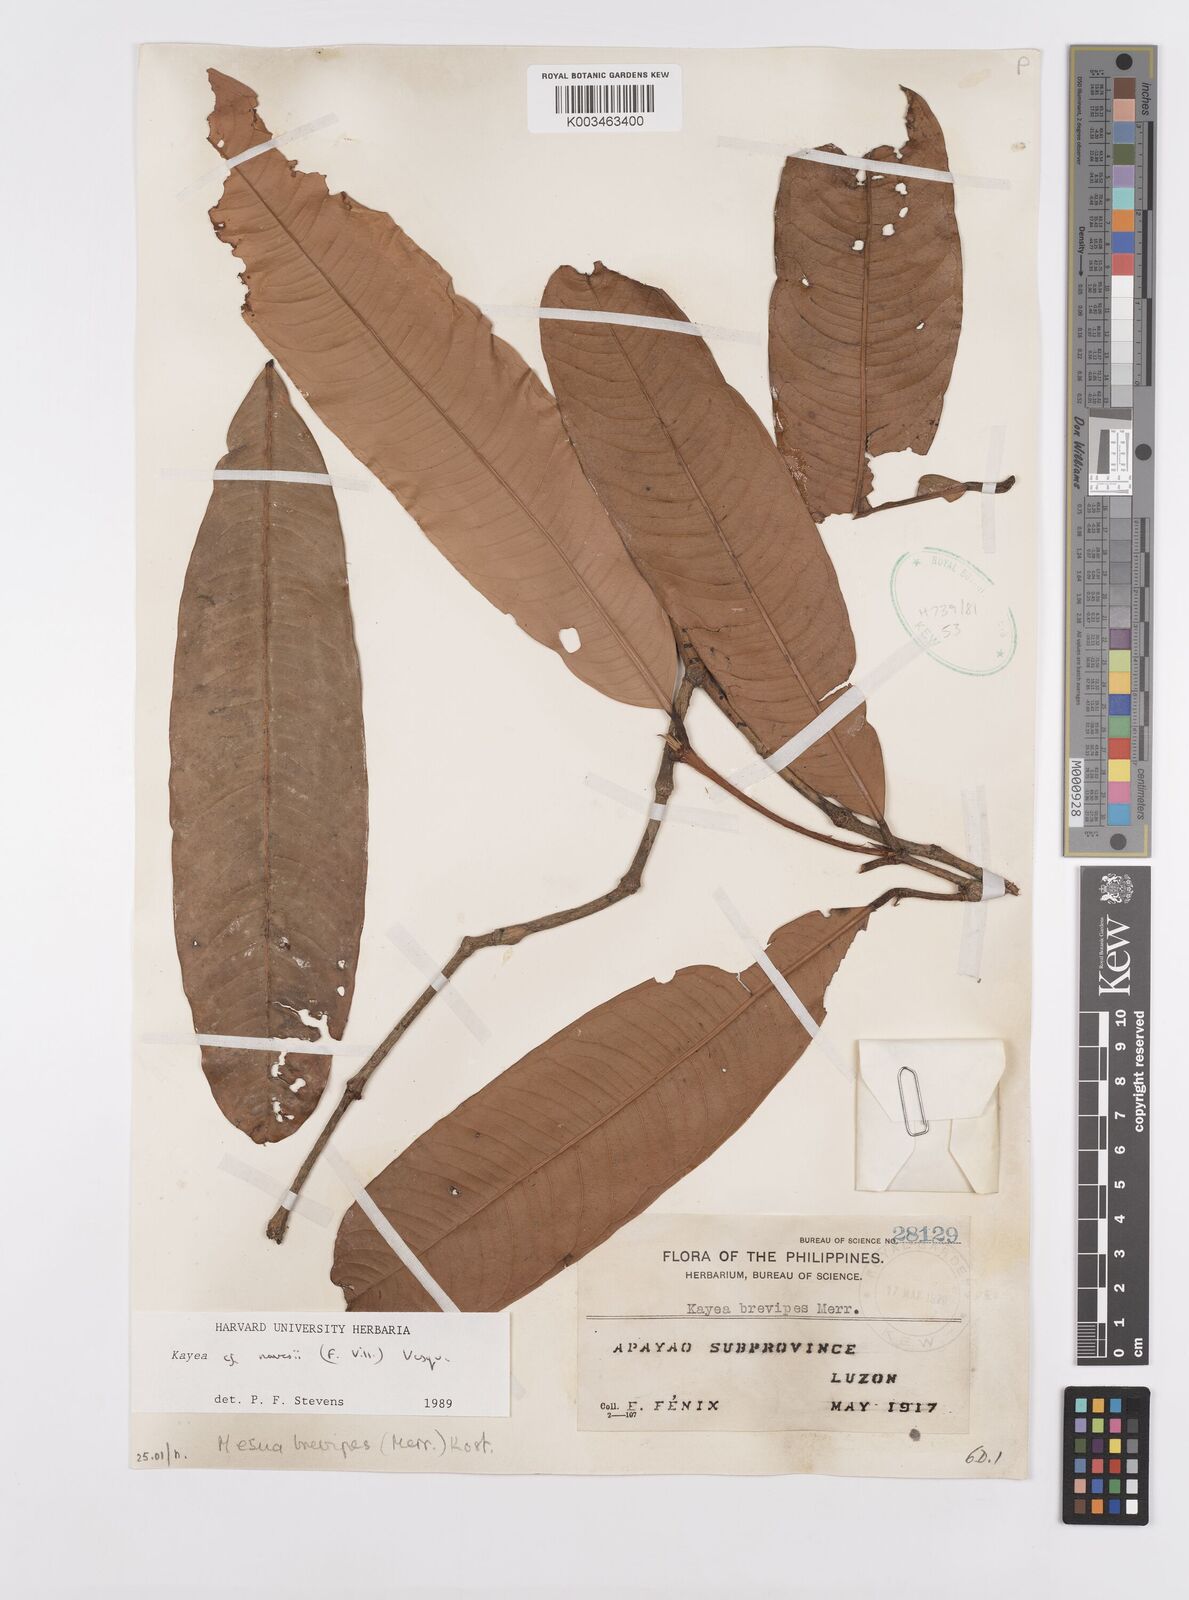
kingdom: Plantae
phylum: Tracheophyta
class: Magnoliopsida
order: Malpighiales
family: Calophyllaceae
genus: Kayea
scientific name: Kayea navesii
